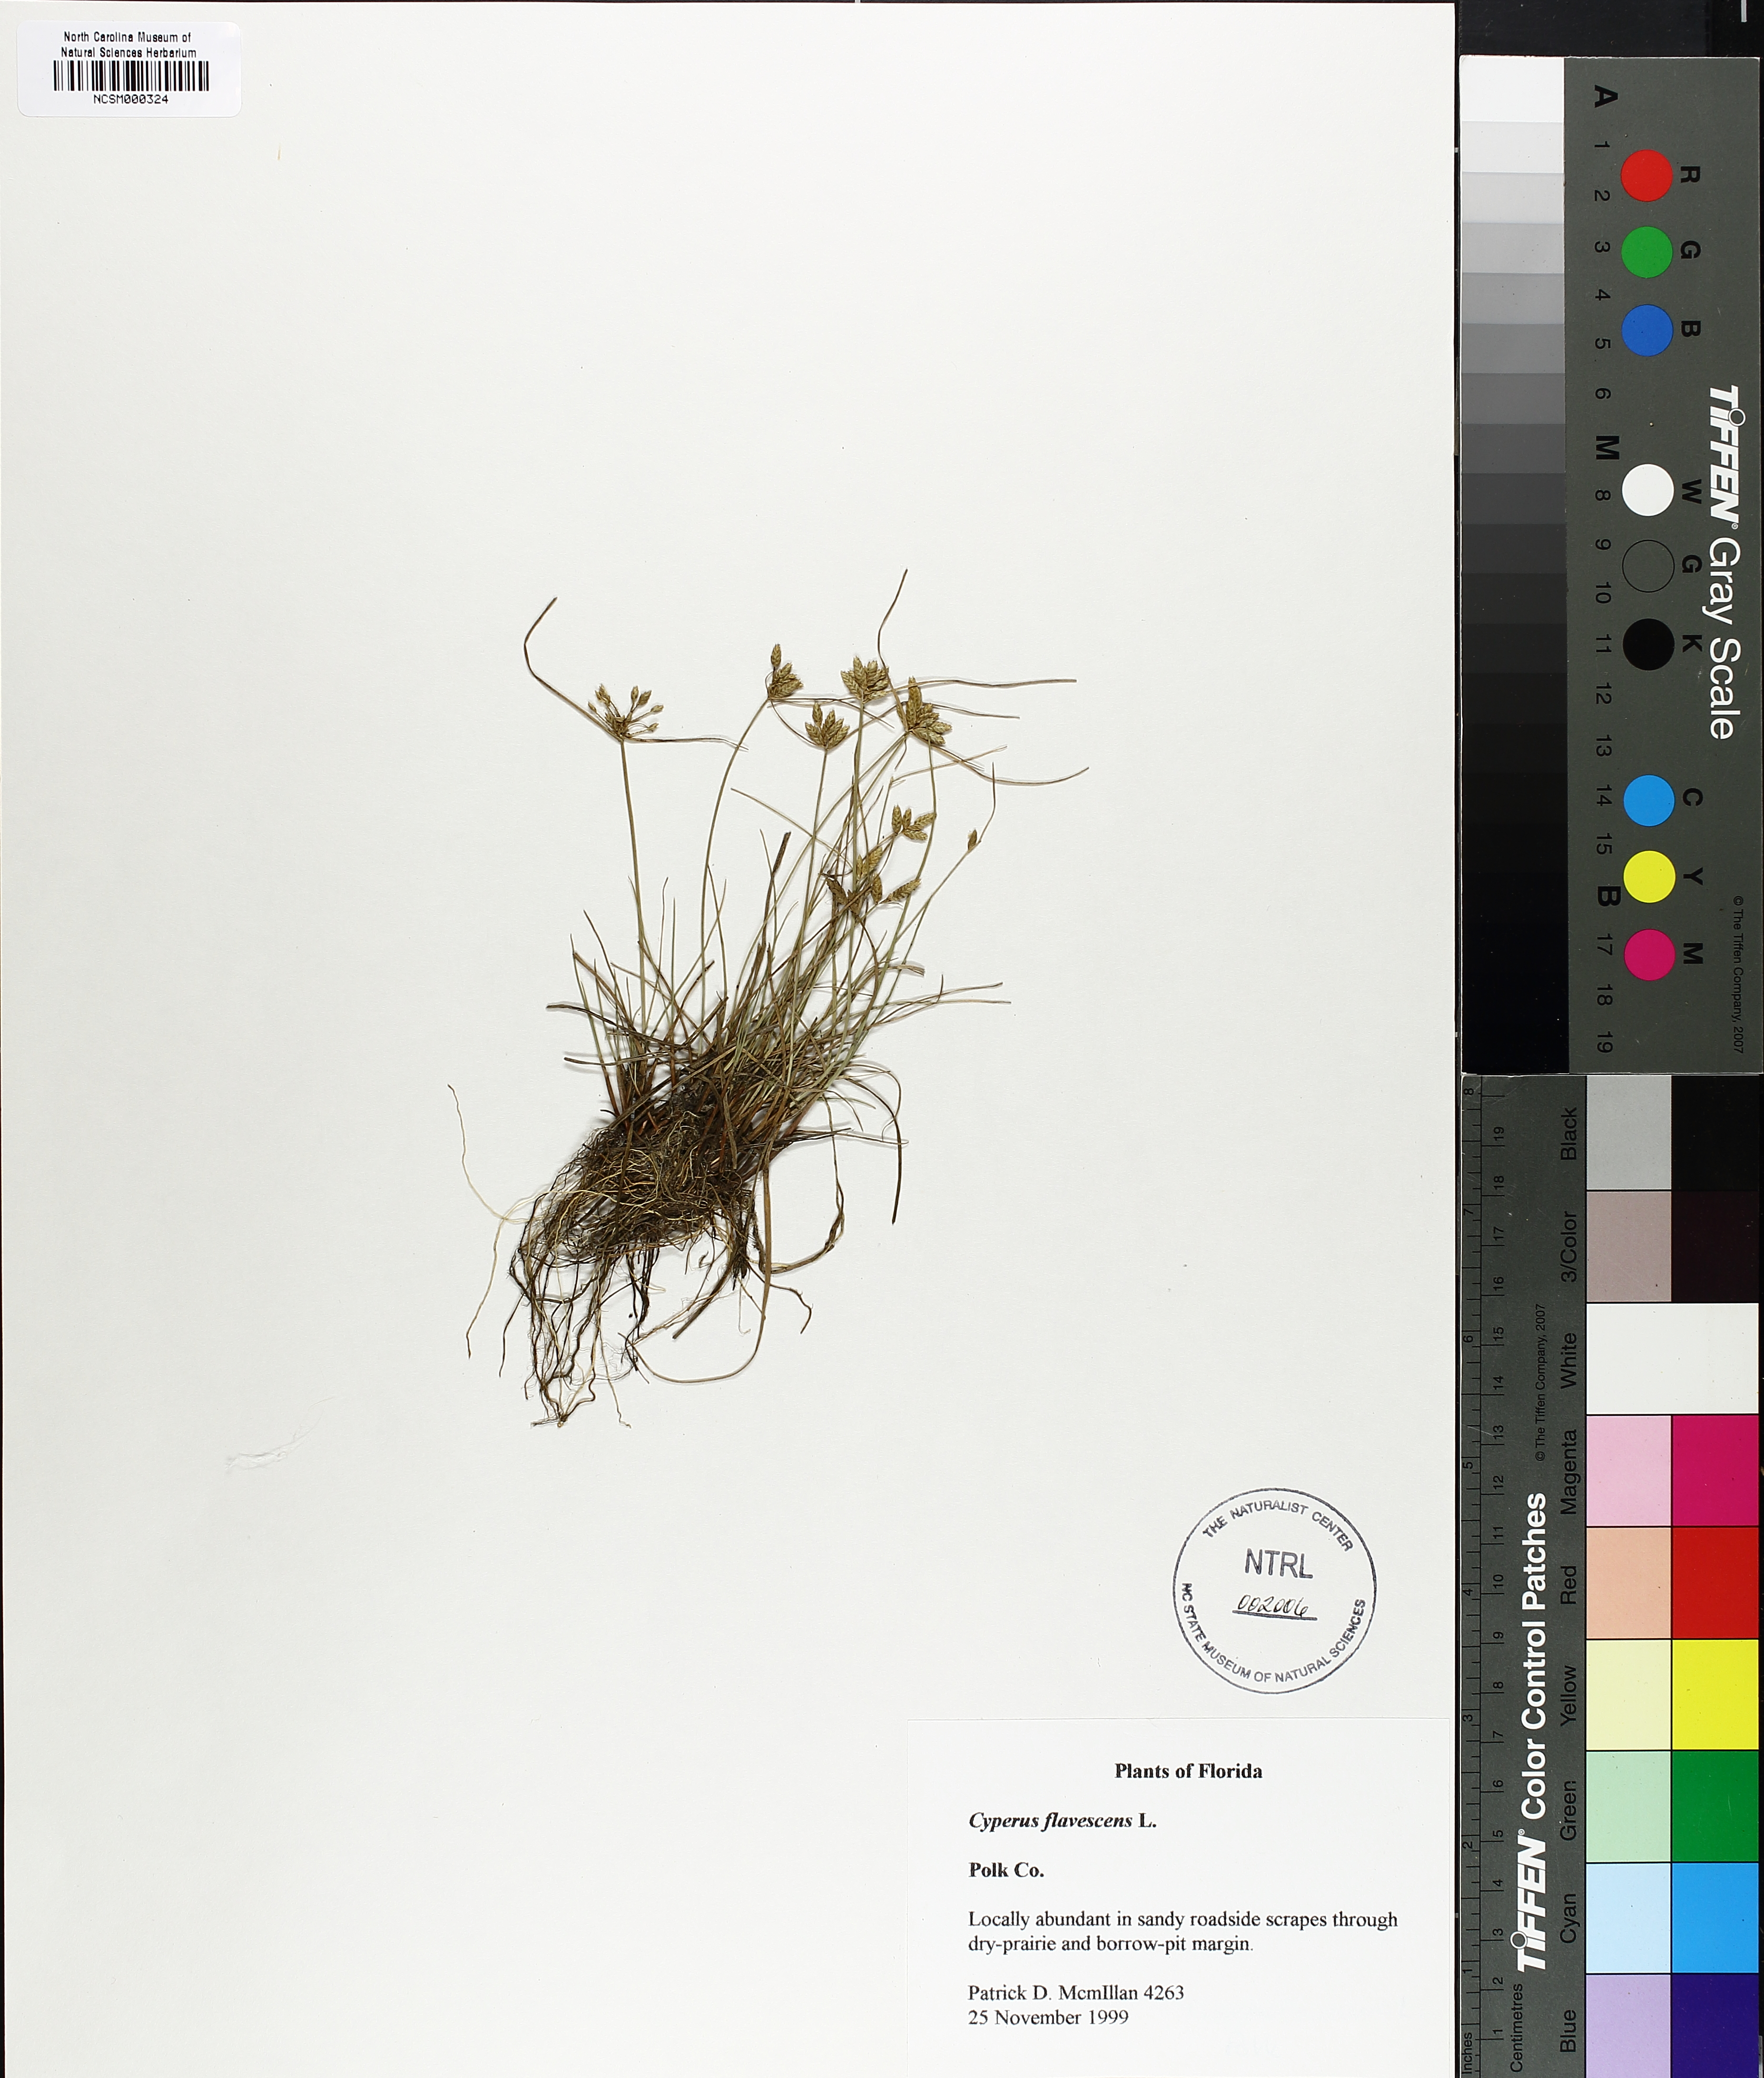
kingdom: Plantae
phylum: Tracheophyta
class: Liliopsida
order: Poales
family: Cyperaceae
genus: Cyperus
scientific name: Cyperus flavescens
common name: Yellow galingale
